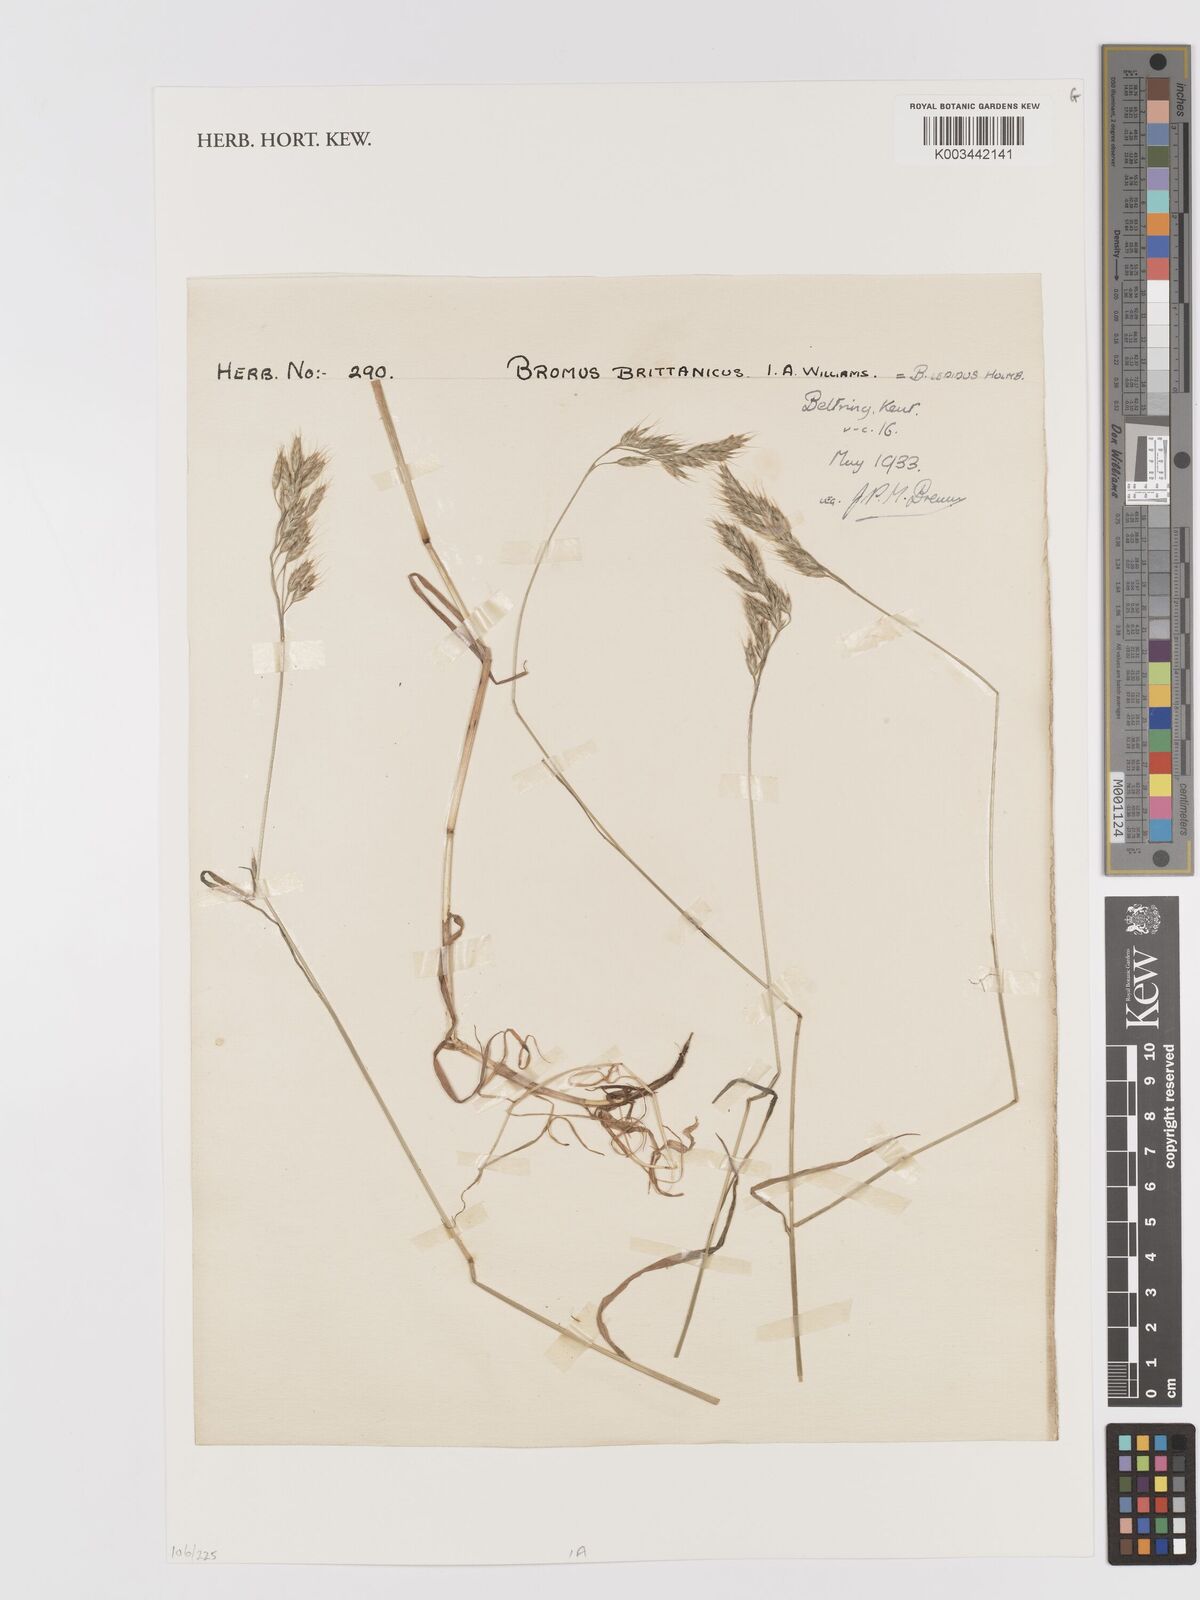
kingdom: Plantae
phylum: Tracheophyta
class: Liliopsida
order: Poales
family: Poaceae
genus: Bromus
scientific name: Bromus lepidus
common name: Slender soft-brome
